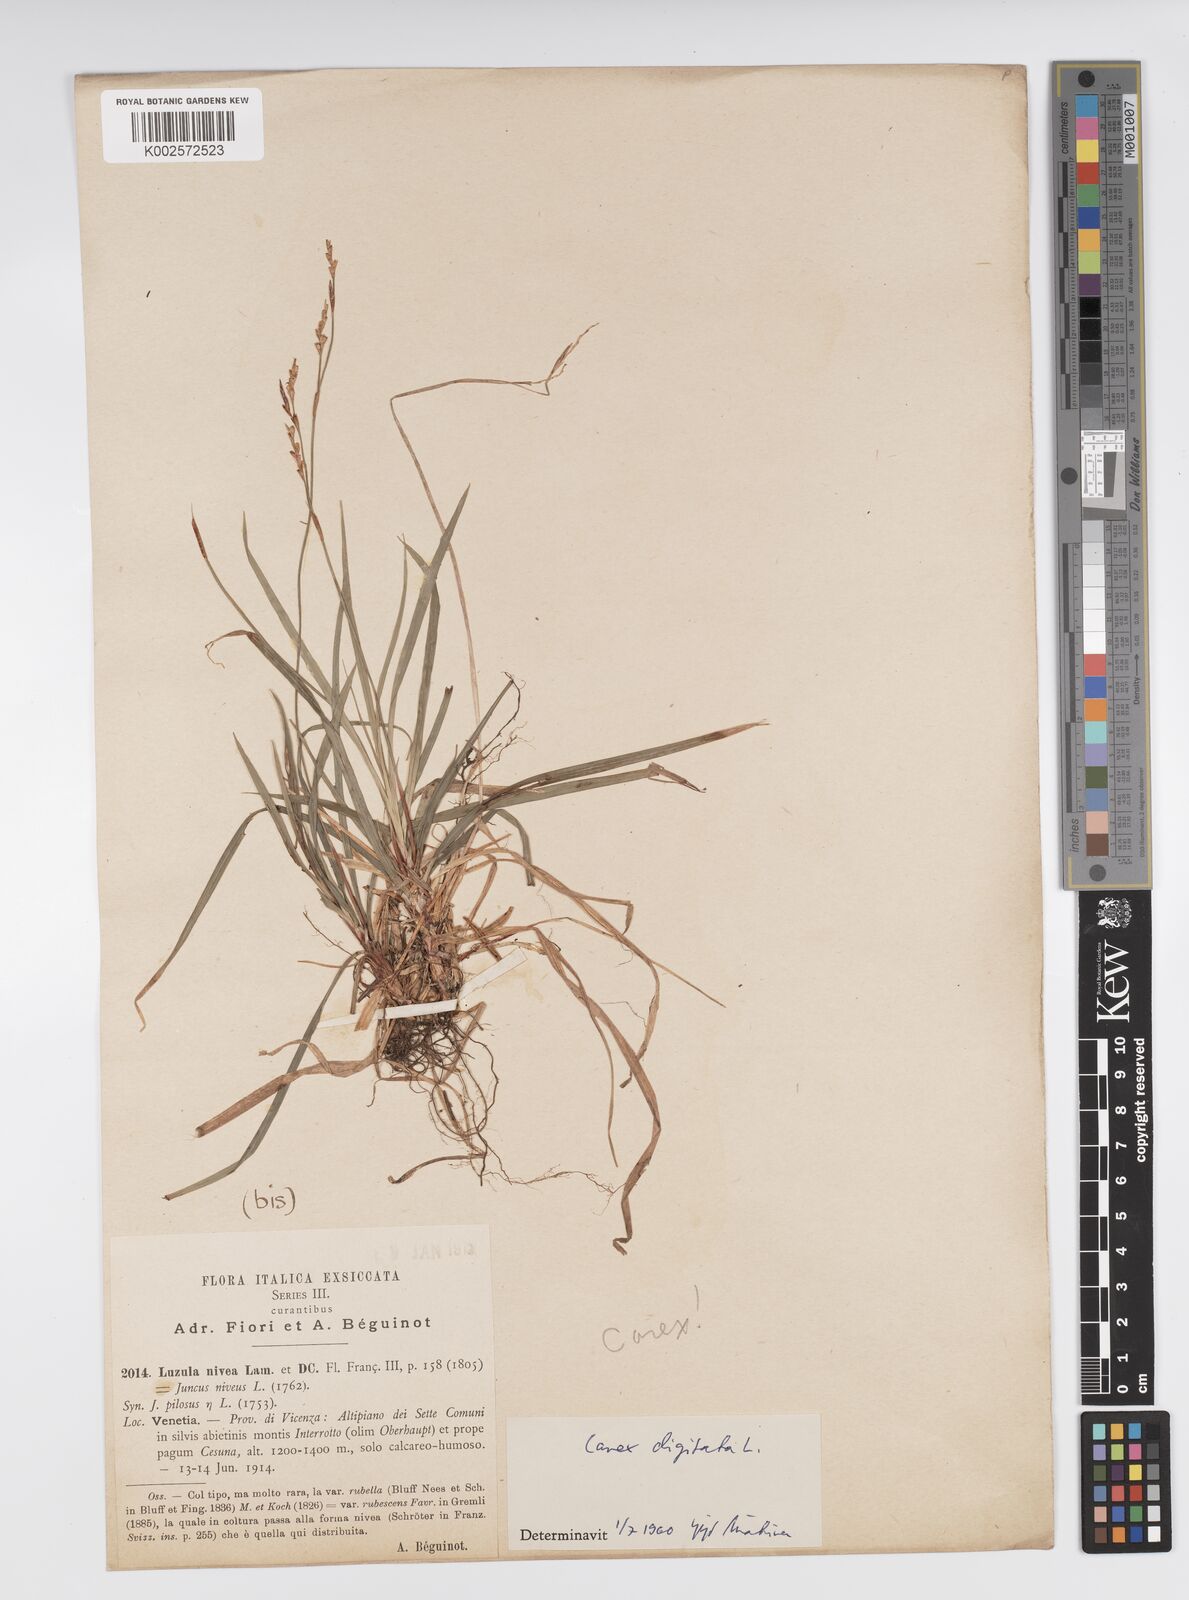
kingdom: Plantae
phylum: Tracheophyta
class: Liliopsida
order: Poales
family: Cyperaceae
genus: Carex
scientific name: Carex digitata
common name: Fingered sedge
